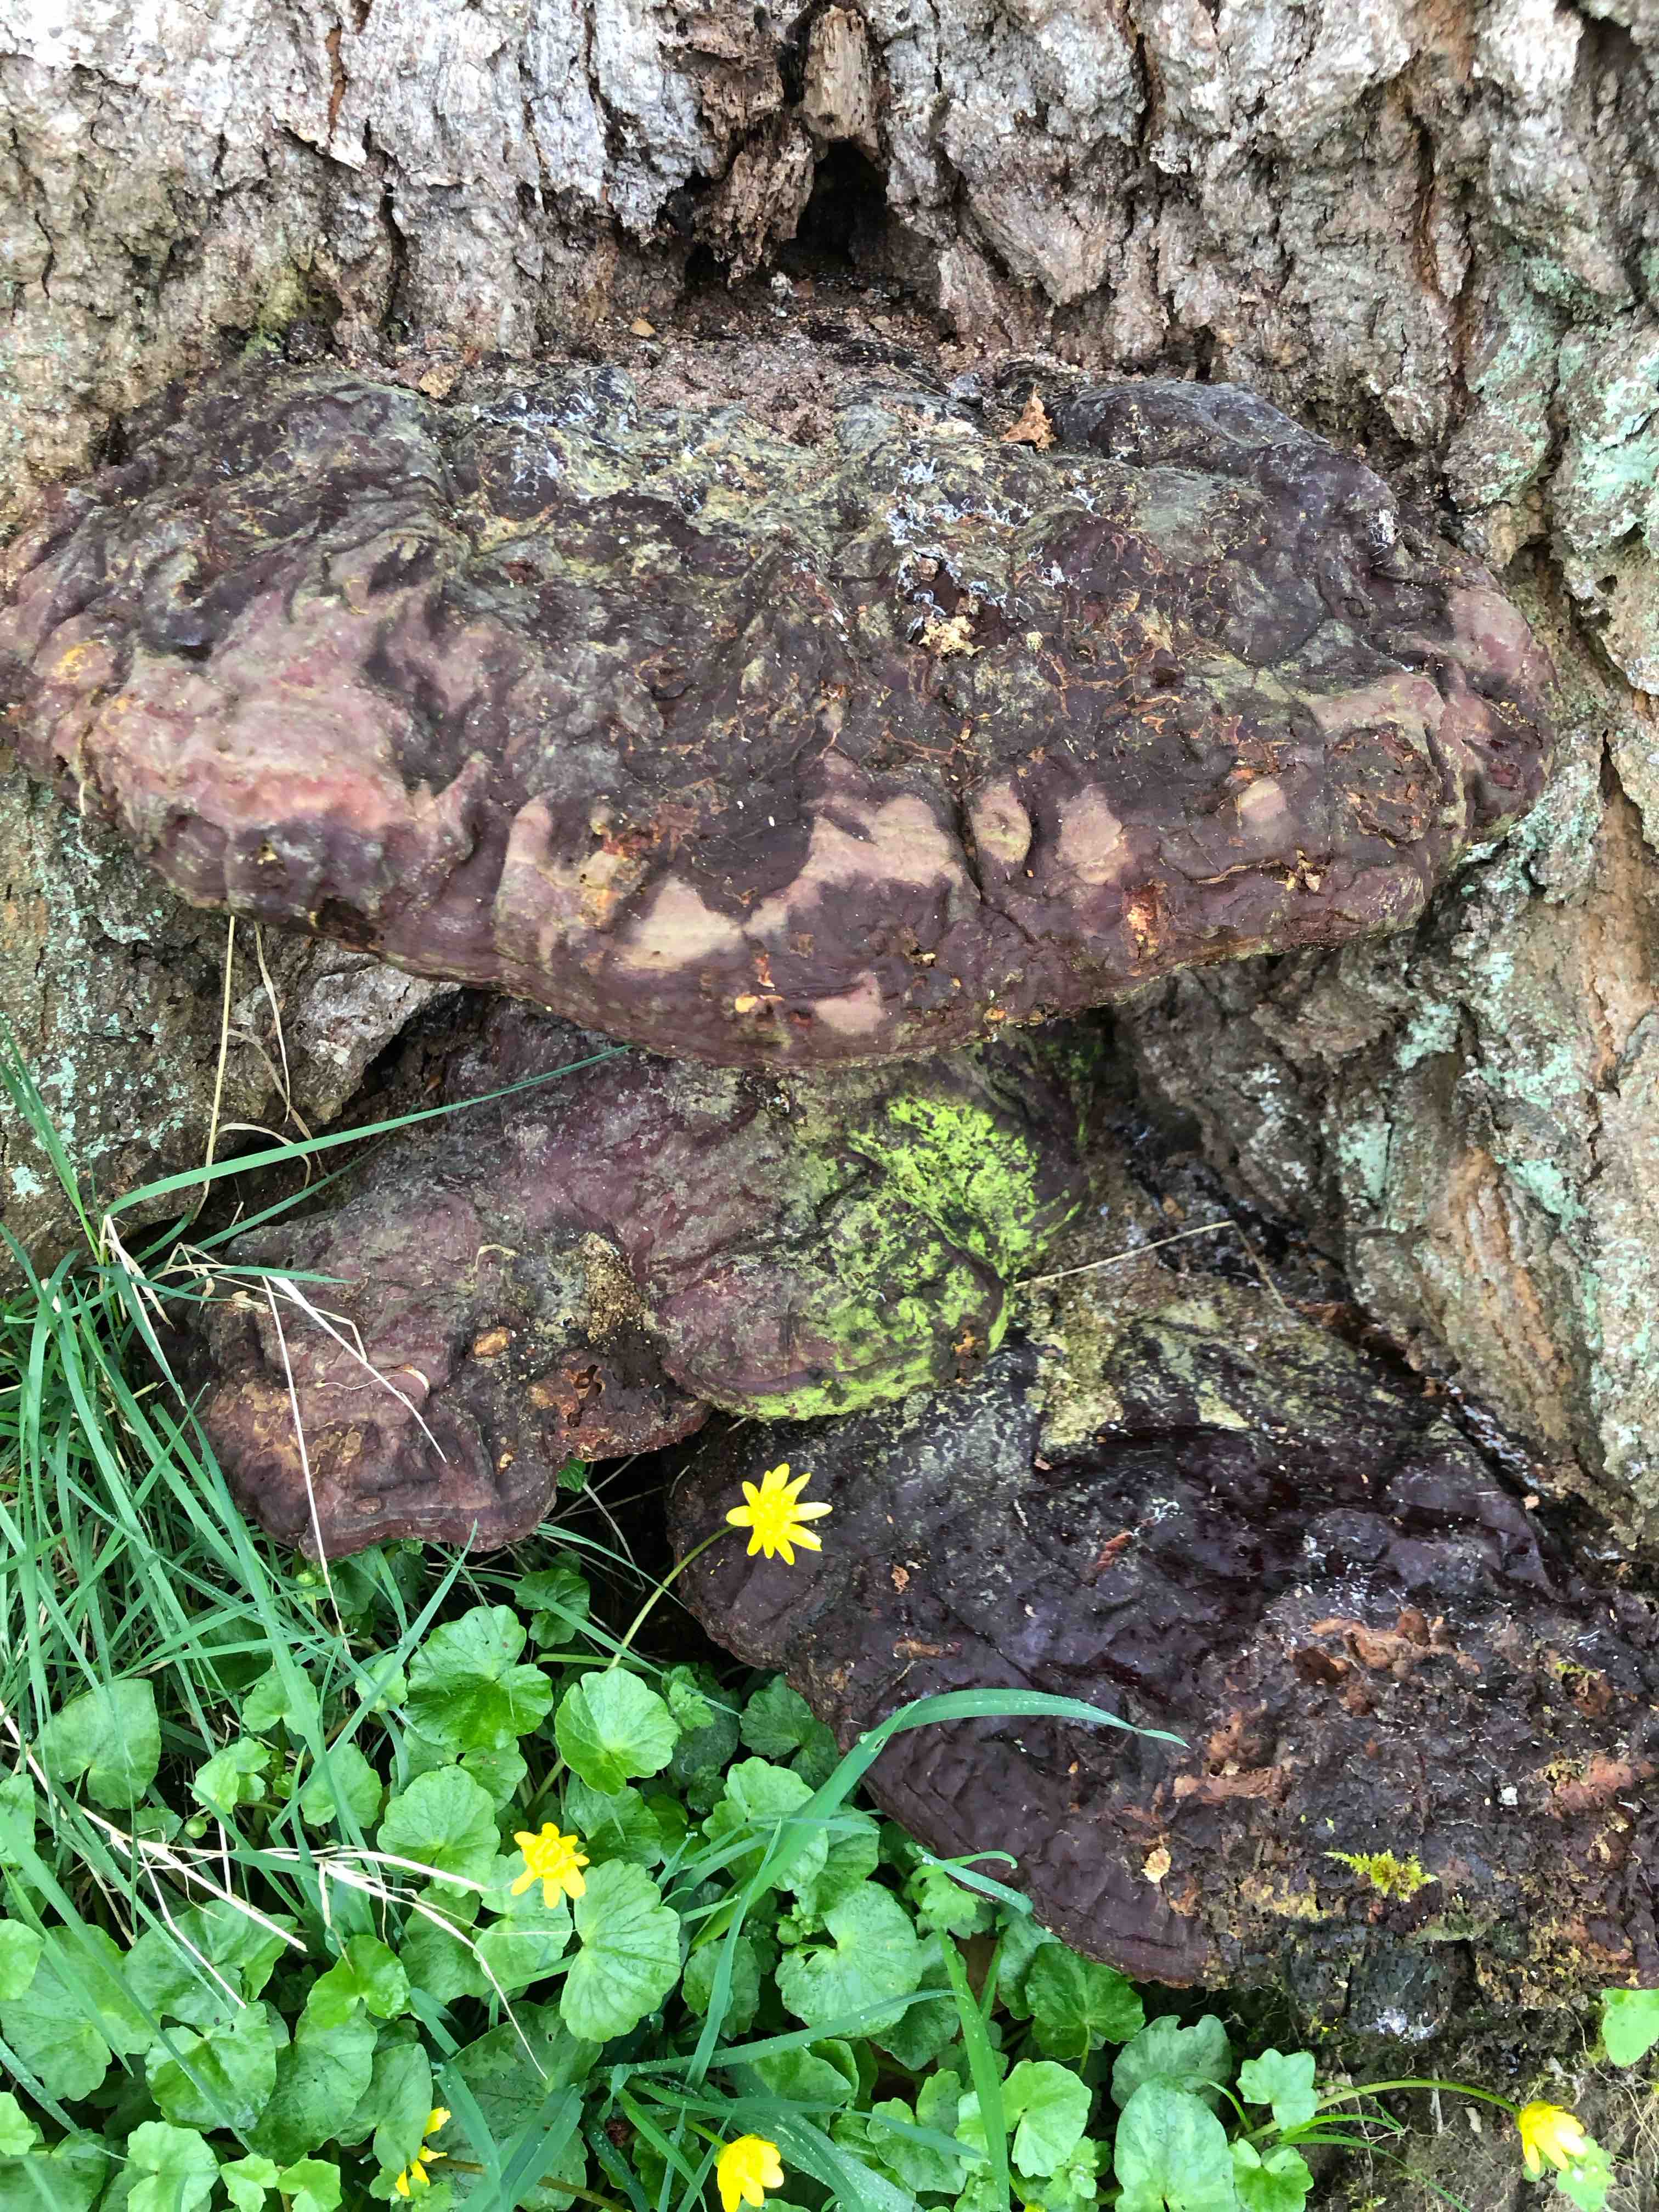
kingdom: Fungi
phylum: Basidiomycota
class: Agaricomycetes
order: Polyporales
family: Polyporaceae
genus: Ganoderma
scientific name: Ganoderma resinaceum
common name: gyldenbrun lakporesvamp
